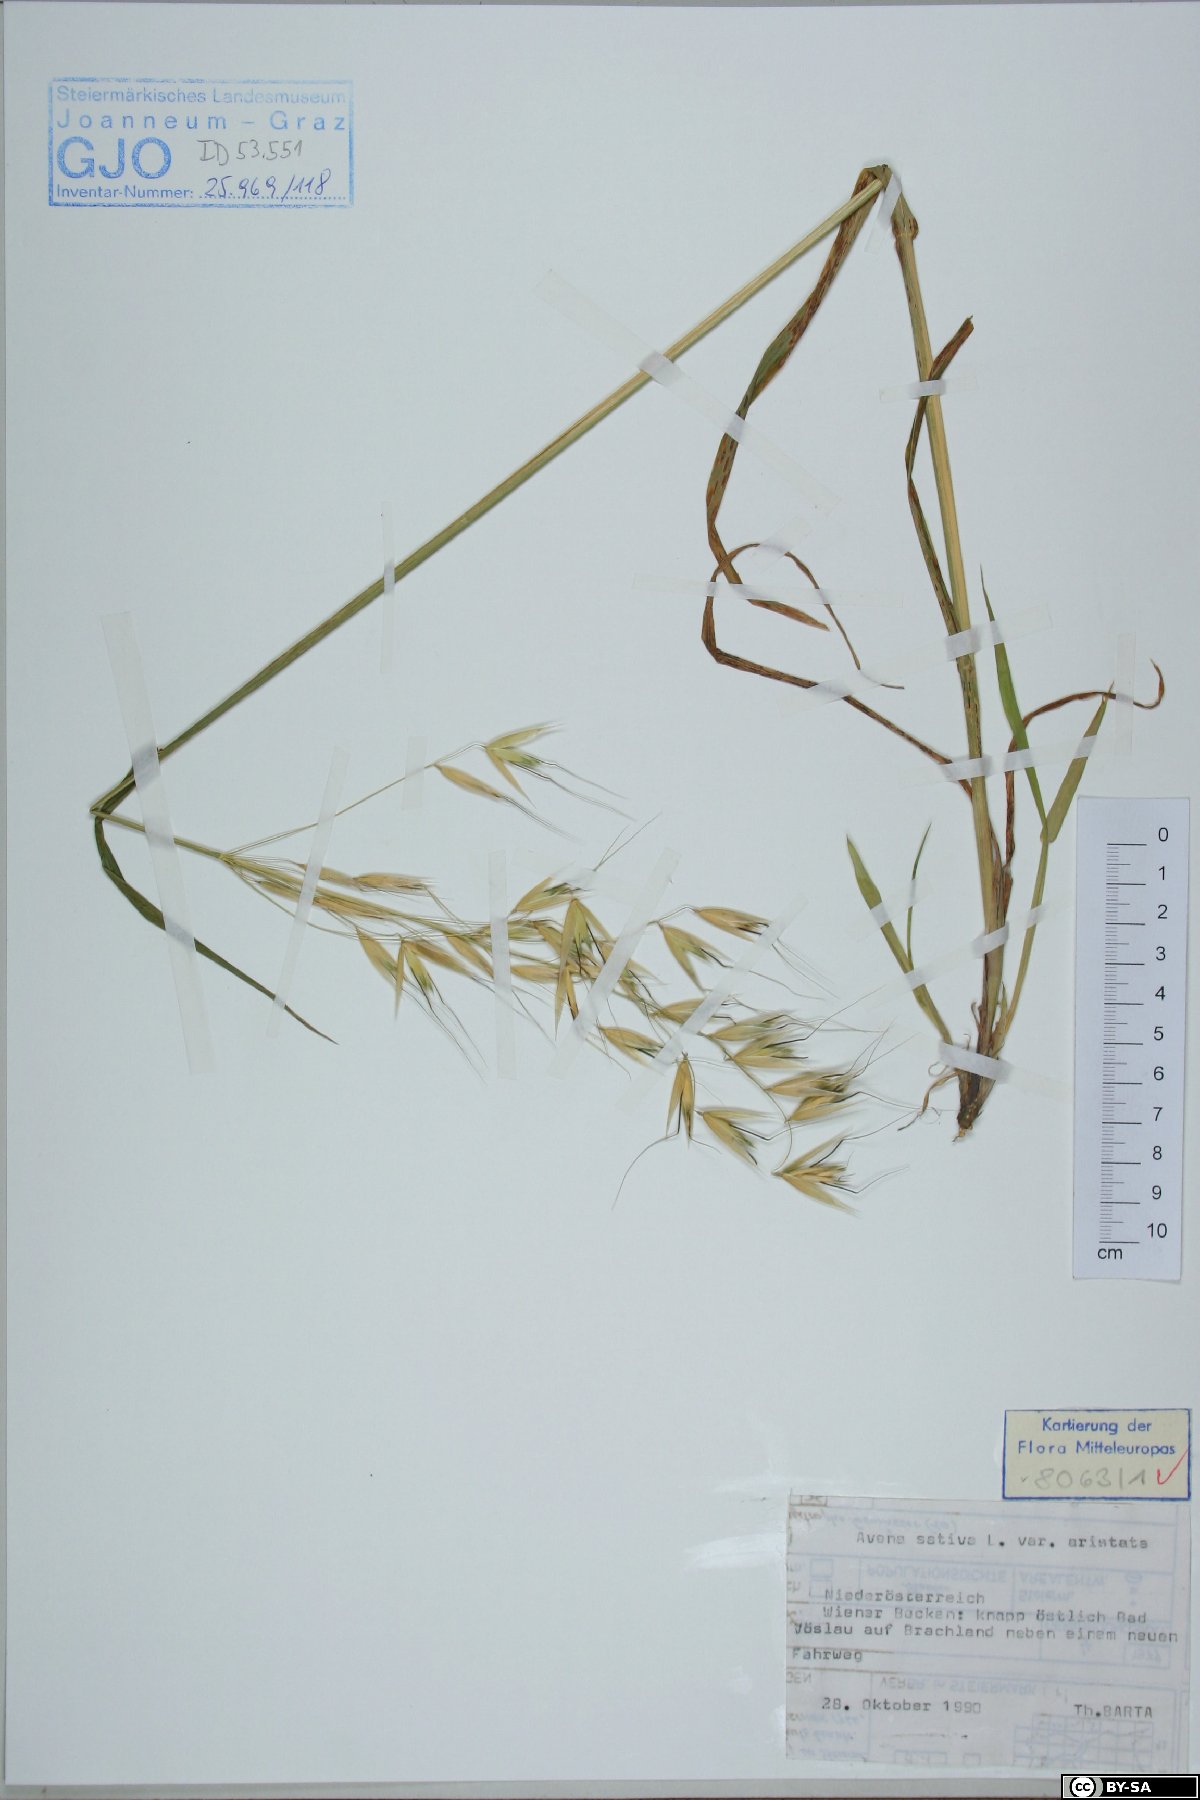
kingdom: Plantae
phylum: Tracheophyta
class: Liliopsida
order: Poales
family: Poaceae
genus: Avena
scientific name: Avena sativa
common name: Oat
